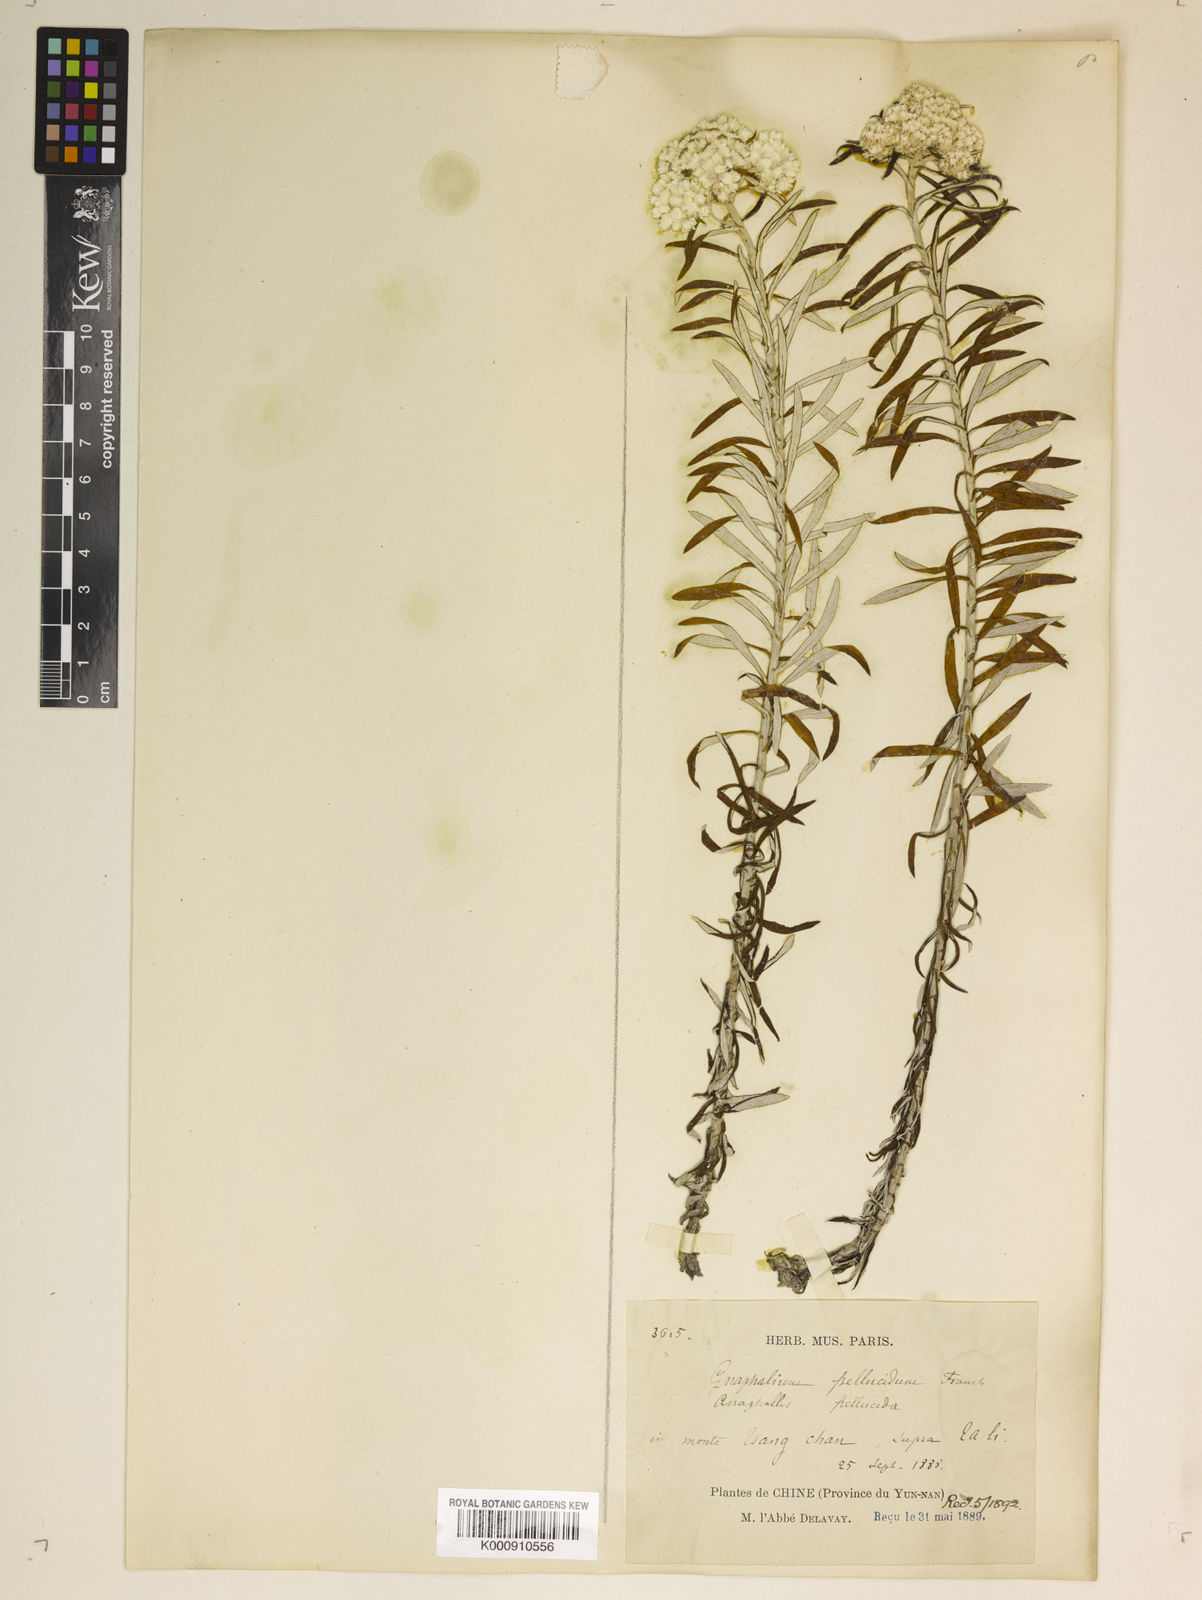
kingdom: Plantae
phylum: Tracheophyta
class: Magnoliopsida
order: Asterales
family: Asteraceae
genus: Anaphalis
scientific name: Anaphalis contorta
